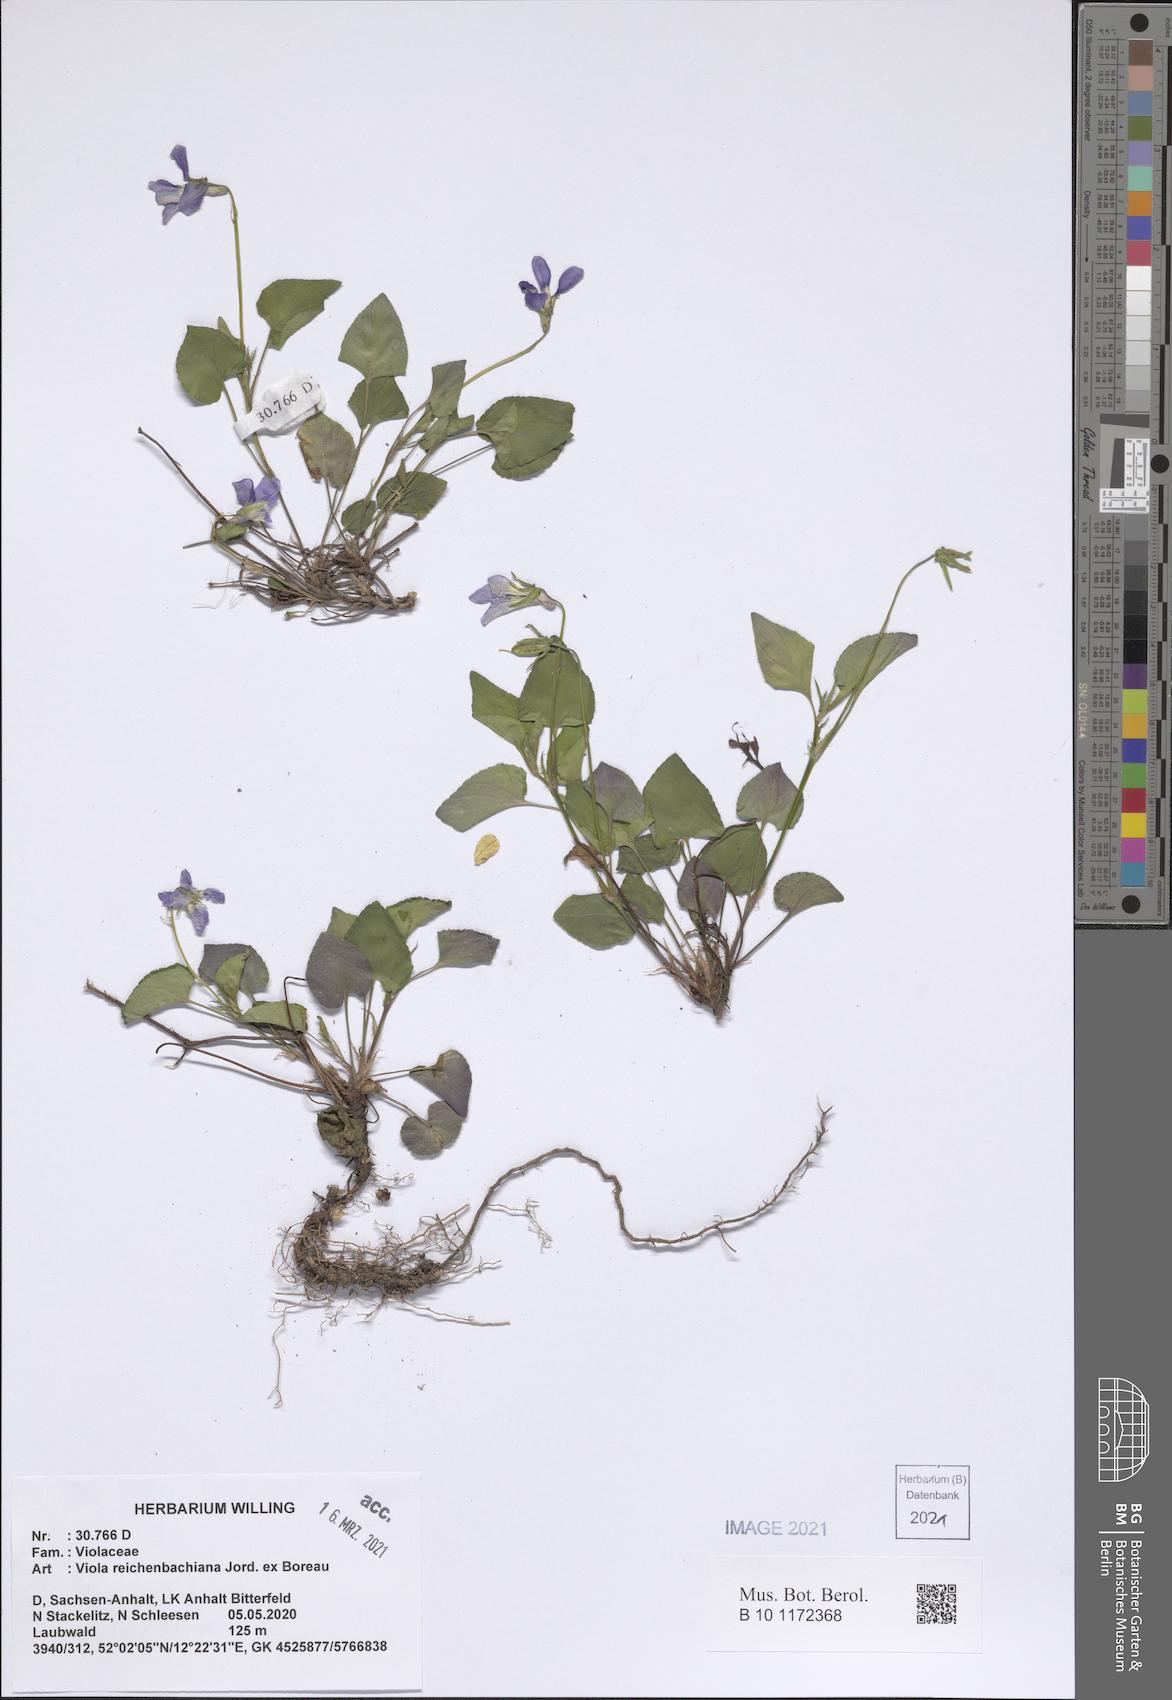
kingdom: Plantae
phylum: Tracheophyta
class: Magnoliopsida
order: Malpighiales
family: Violaceae
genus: Viola
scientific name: Viola reichenbachiana
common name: Early dog-violet
